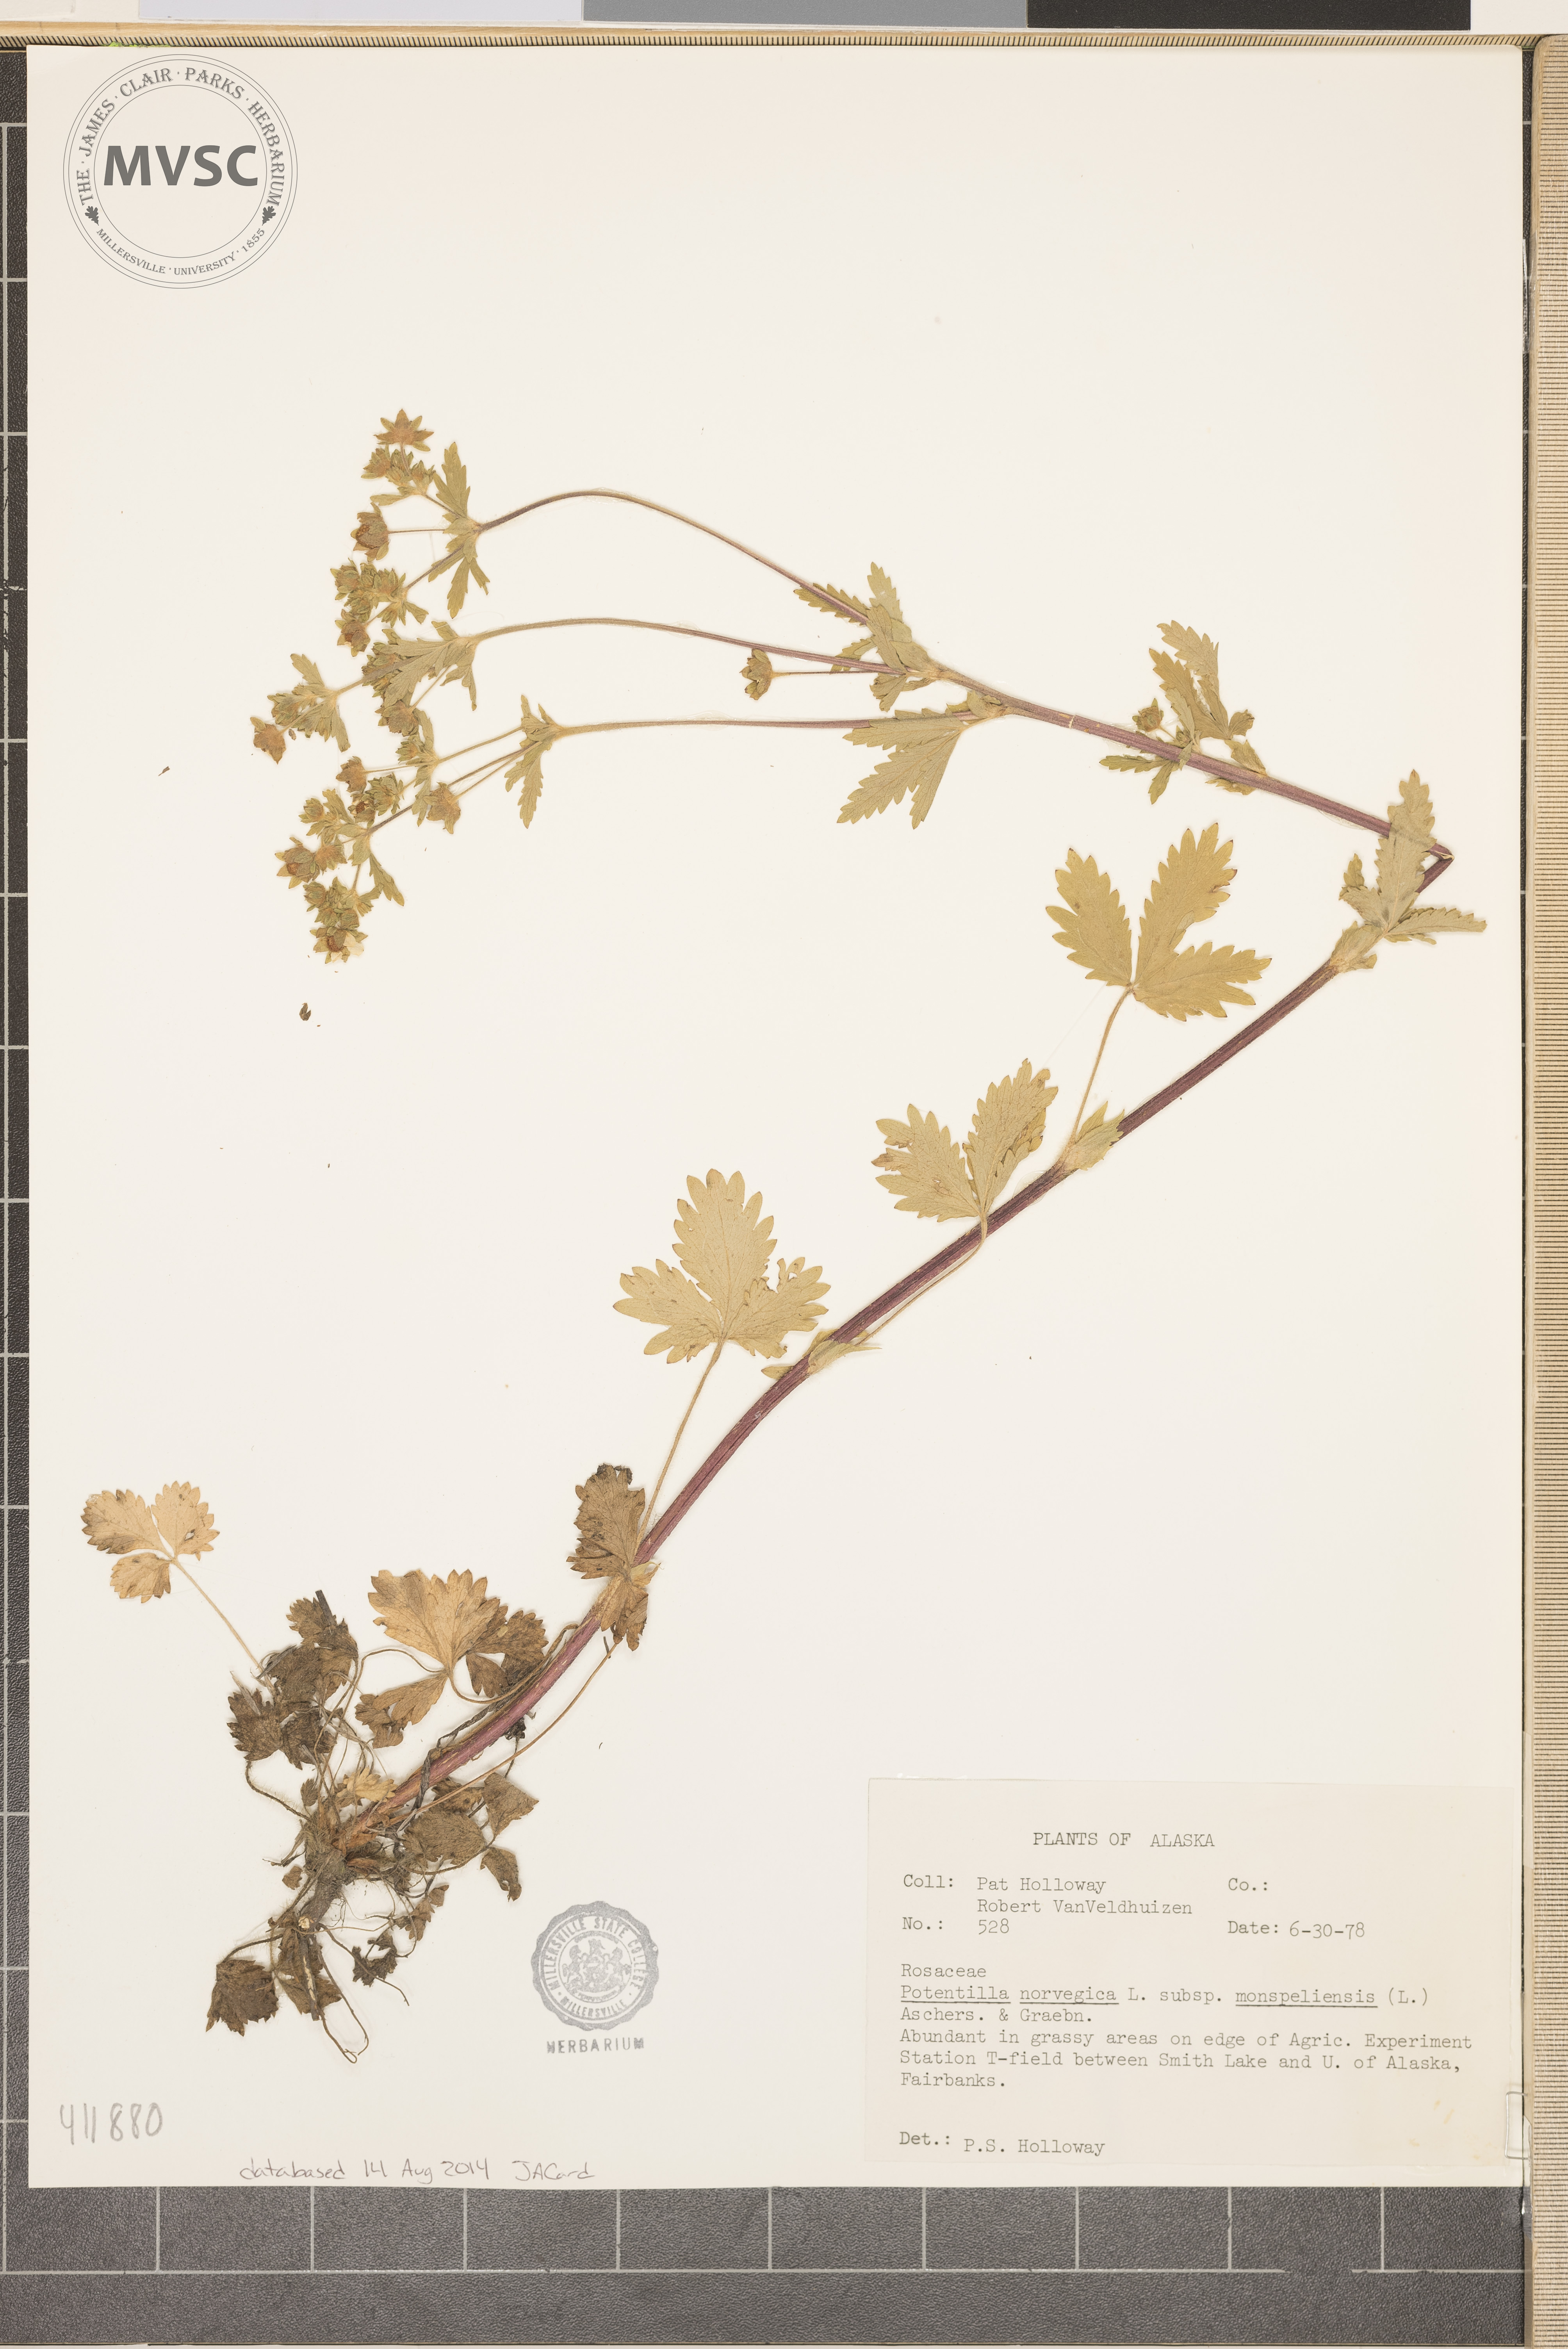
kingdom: Plantae
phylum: Tracheophyta
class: Magnoliopsida
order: Rosales
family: Rosaceae
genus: Potentilla
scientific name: Potentilla norvegica
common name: Ternate-leaved cinquefoil
